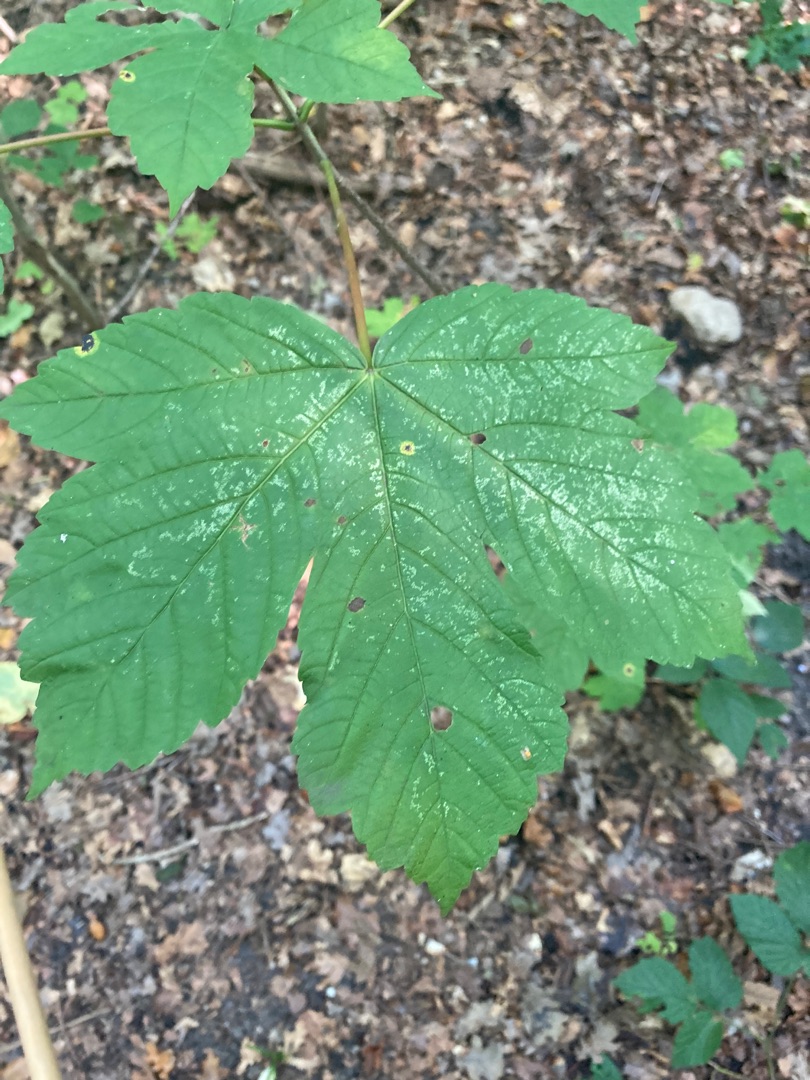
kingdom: Plantae
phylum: Tracheophyta
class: Magnoliopsida
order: Sapindales
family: Sapindaceae
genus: Acer
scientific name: Acer pseudoplatanus
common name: Ahorn
